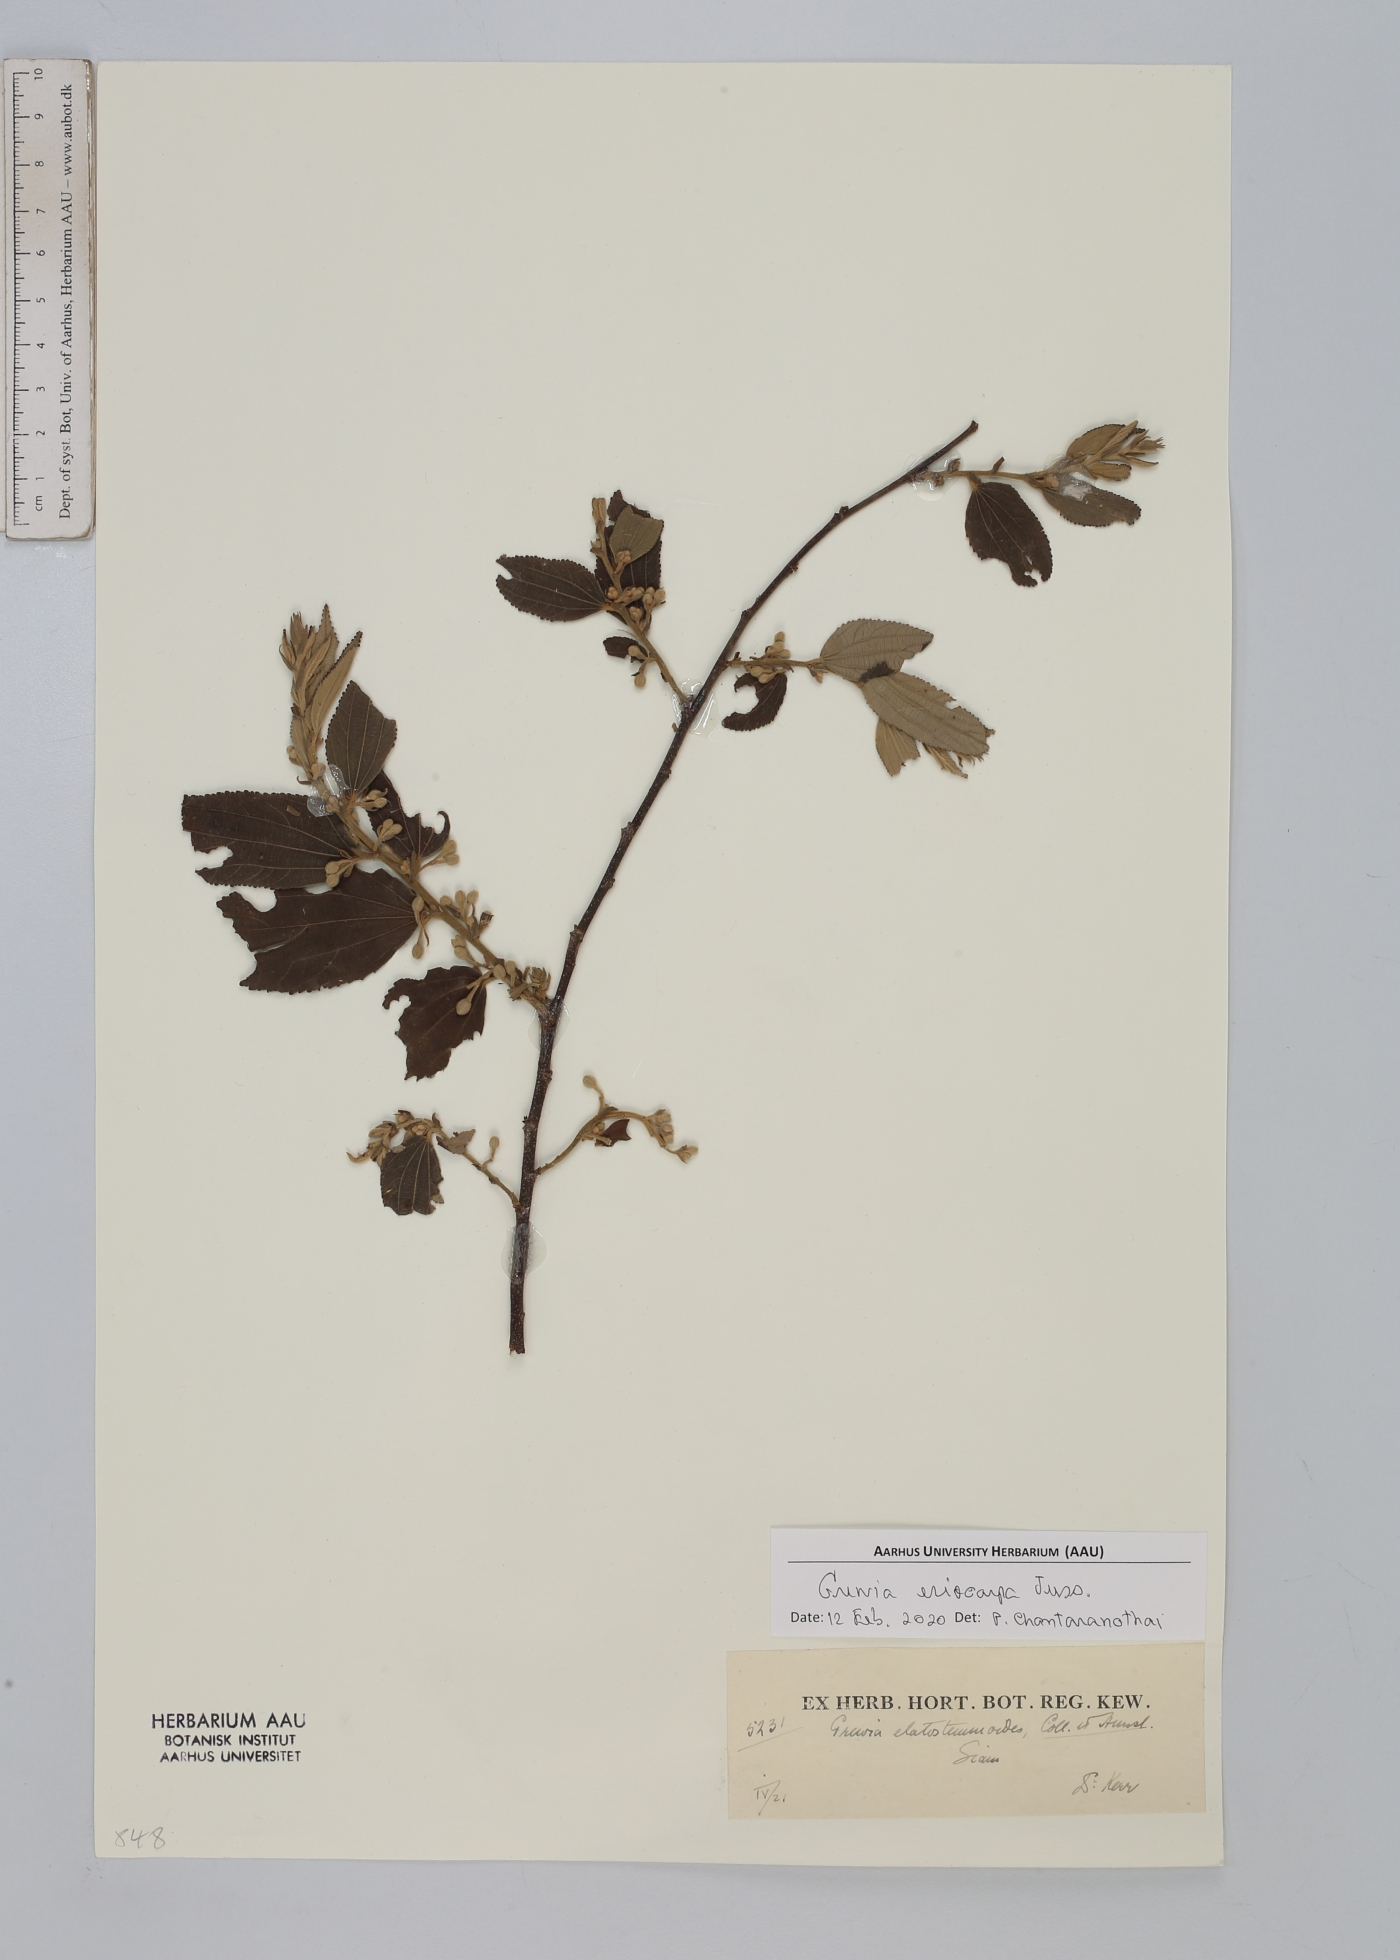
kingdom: Plantae
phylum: Tracheophyta
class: Magnoliopsida
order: Malvales
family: Malvaceae
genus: Grewia
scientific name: Grewia eriocarpa
